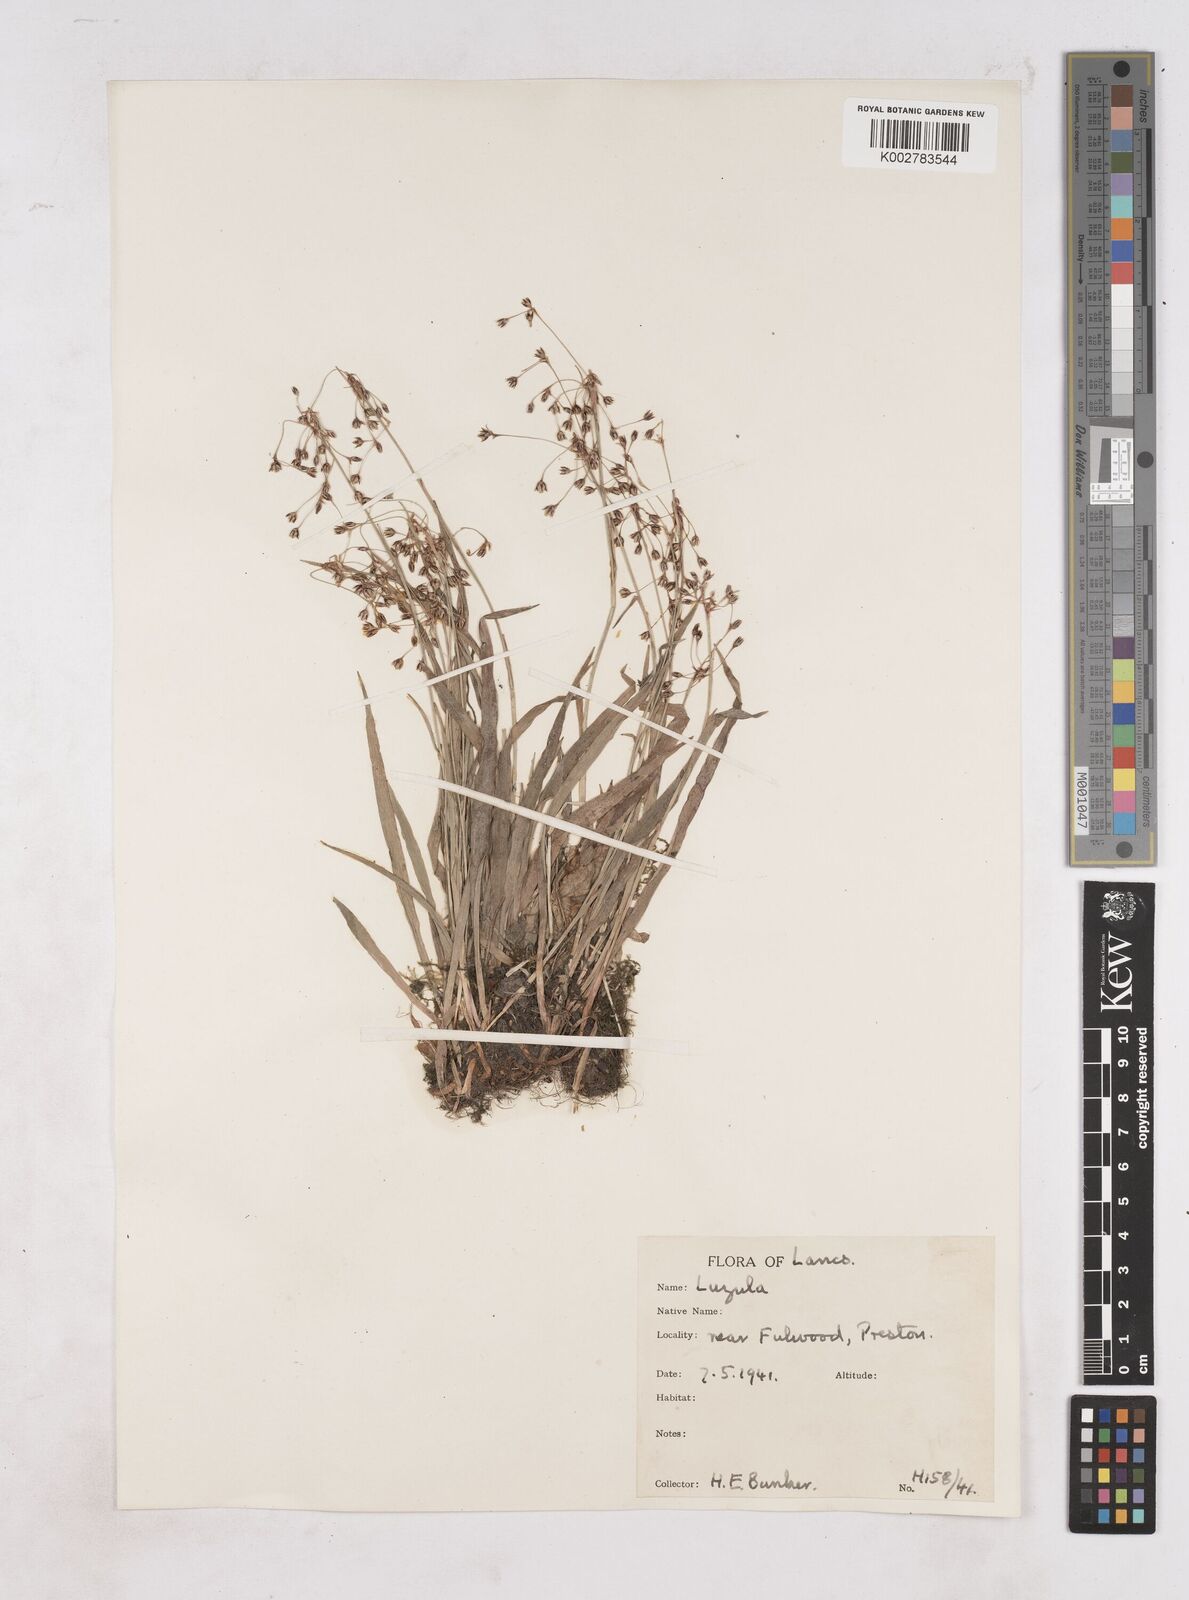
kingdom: Plantae
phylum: Tracheophyta
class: Liliopsida
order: Poales
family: Juncaceae
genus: Luzula
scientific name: Luzula
